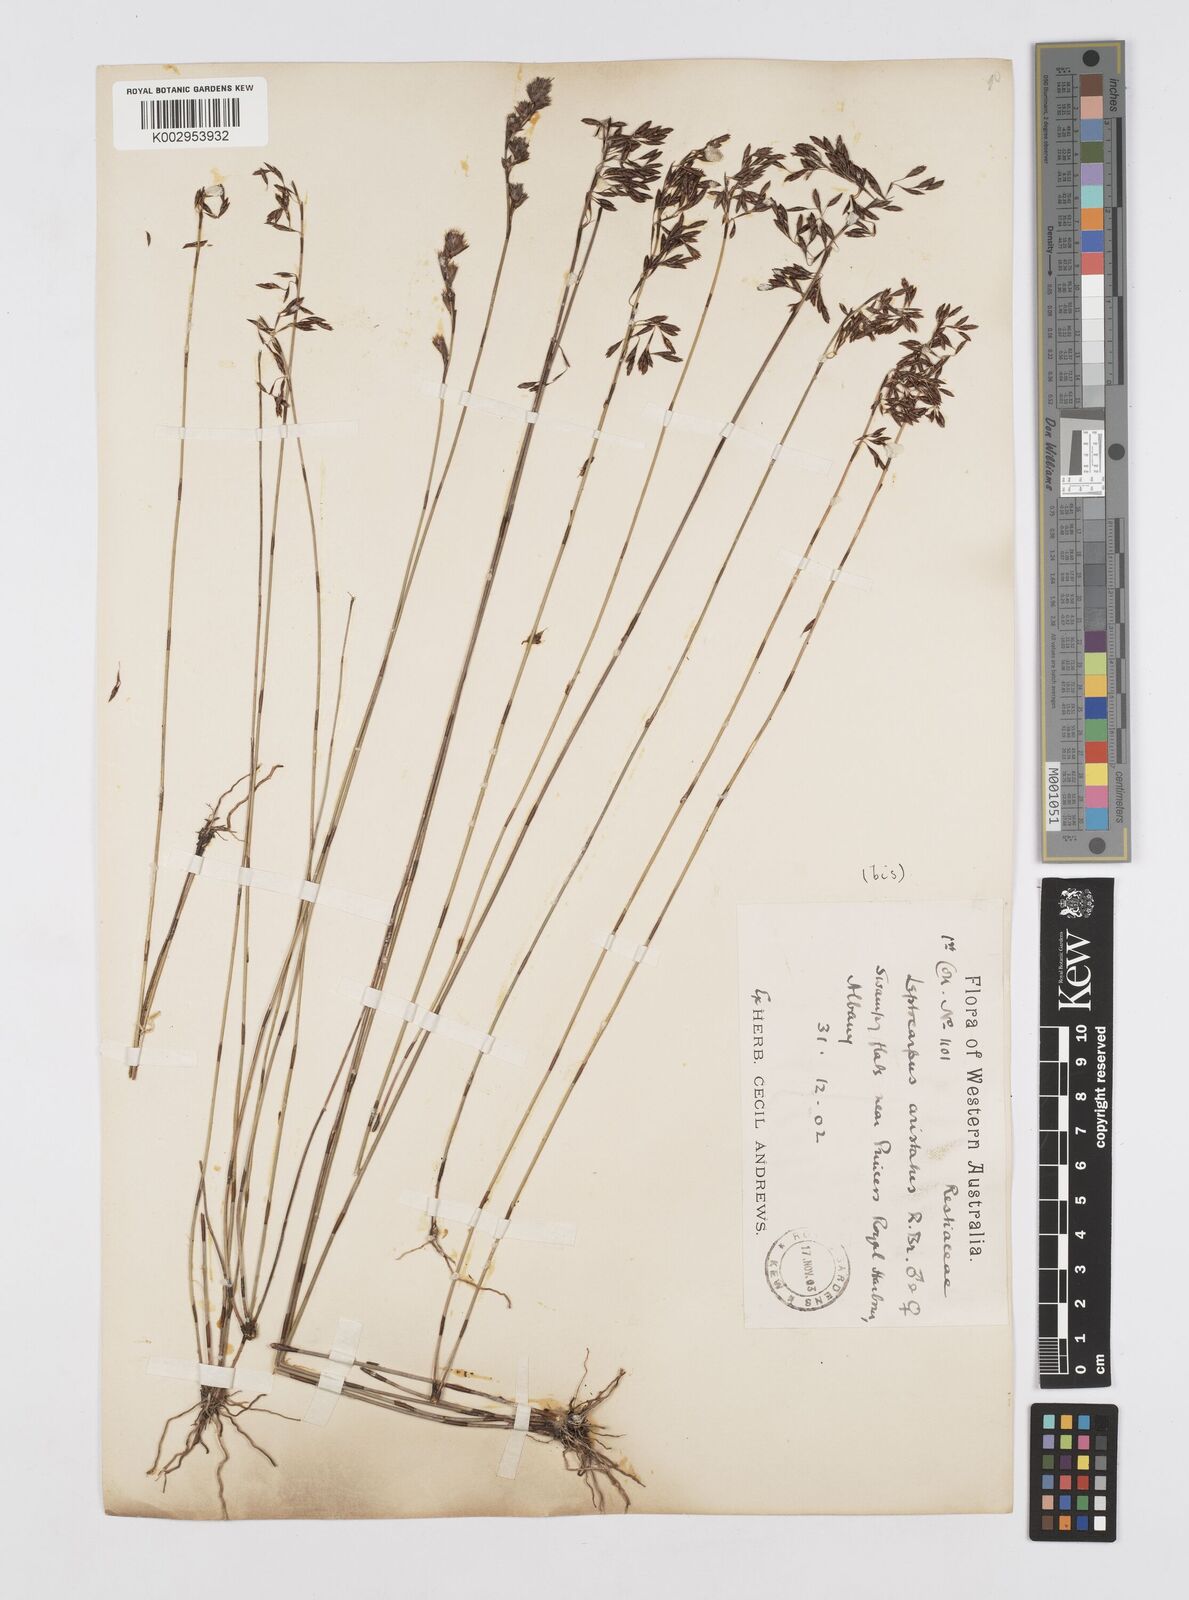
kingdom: Plantae
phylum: Tracheophyta
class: Liliopsida
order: Poales
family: Restionaceae
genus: Chaetanthus
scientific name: Chaetanthus aristatus
